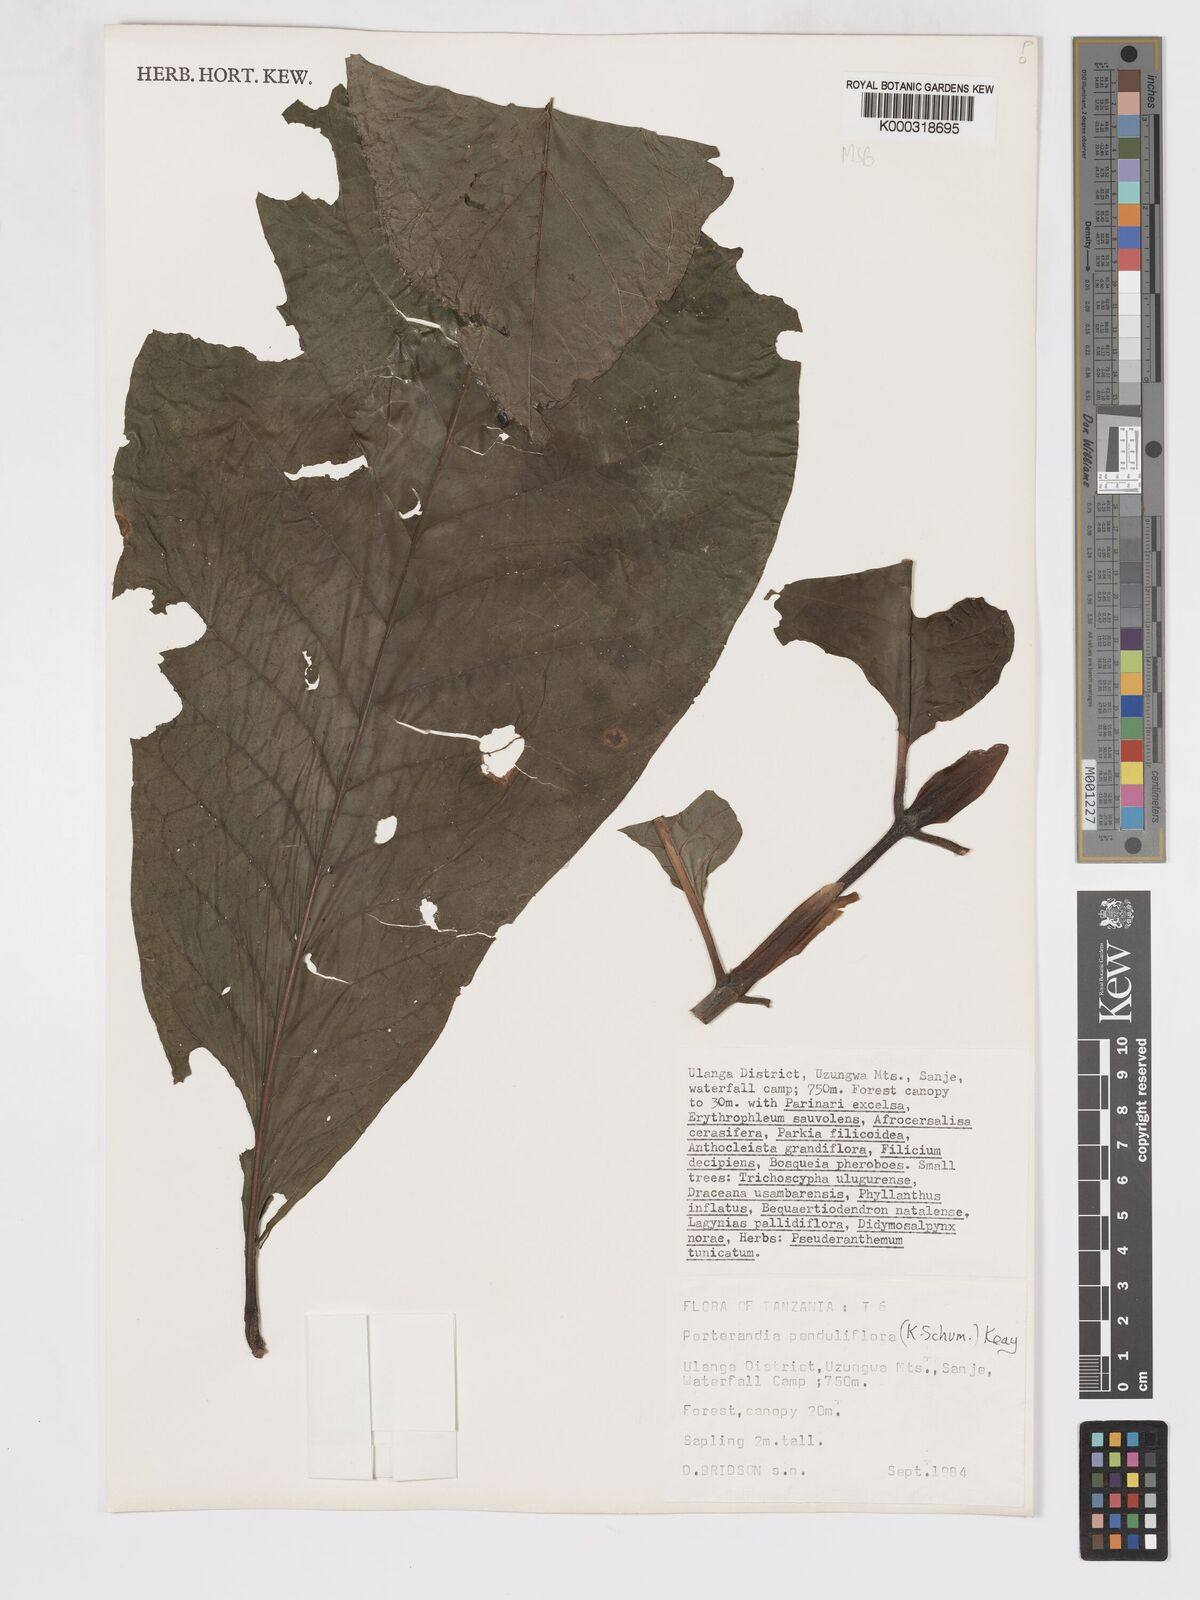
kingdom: Plantae
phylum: Tracheophyta
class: Magnoliopsida
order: Gentianales
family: Rubiaceae
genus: Aoranthe
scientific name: Aoranthe penduliflora
